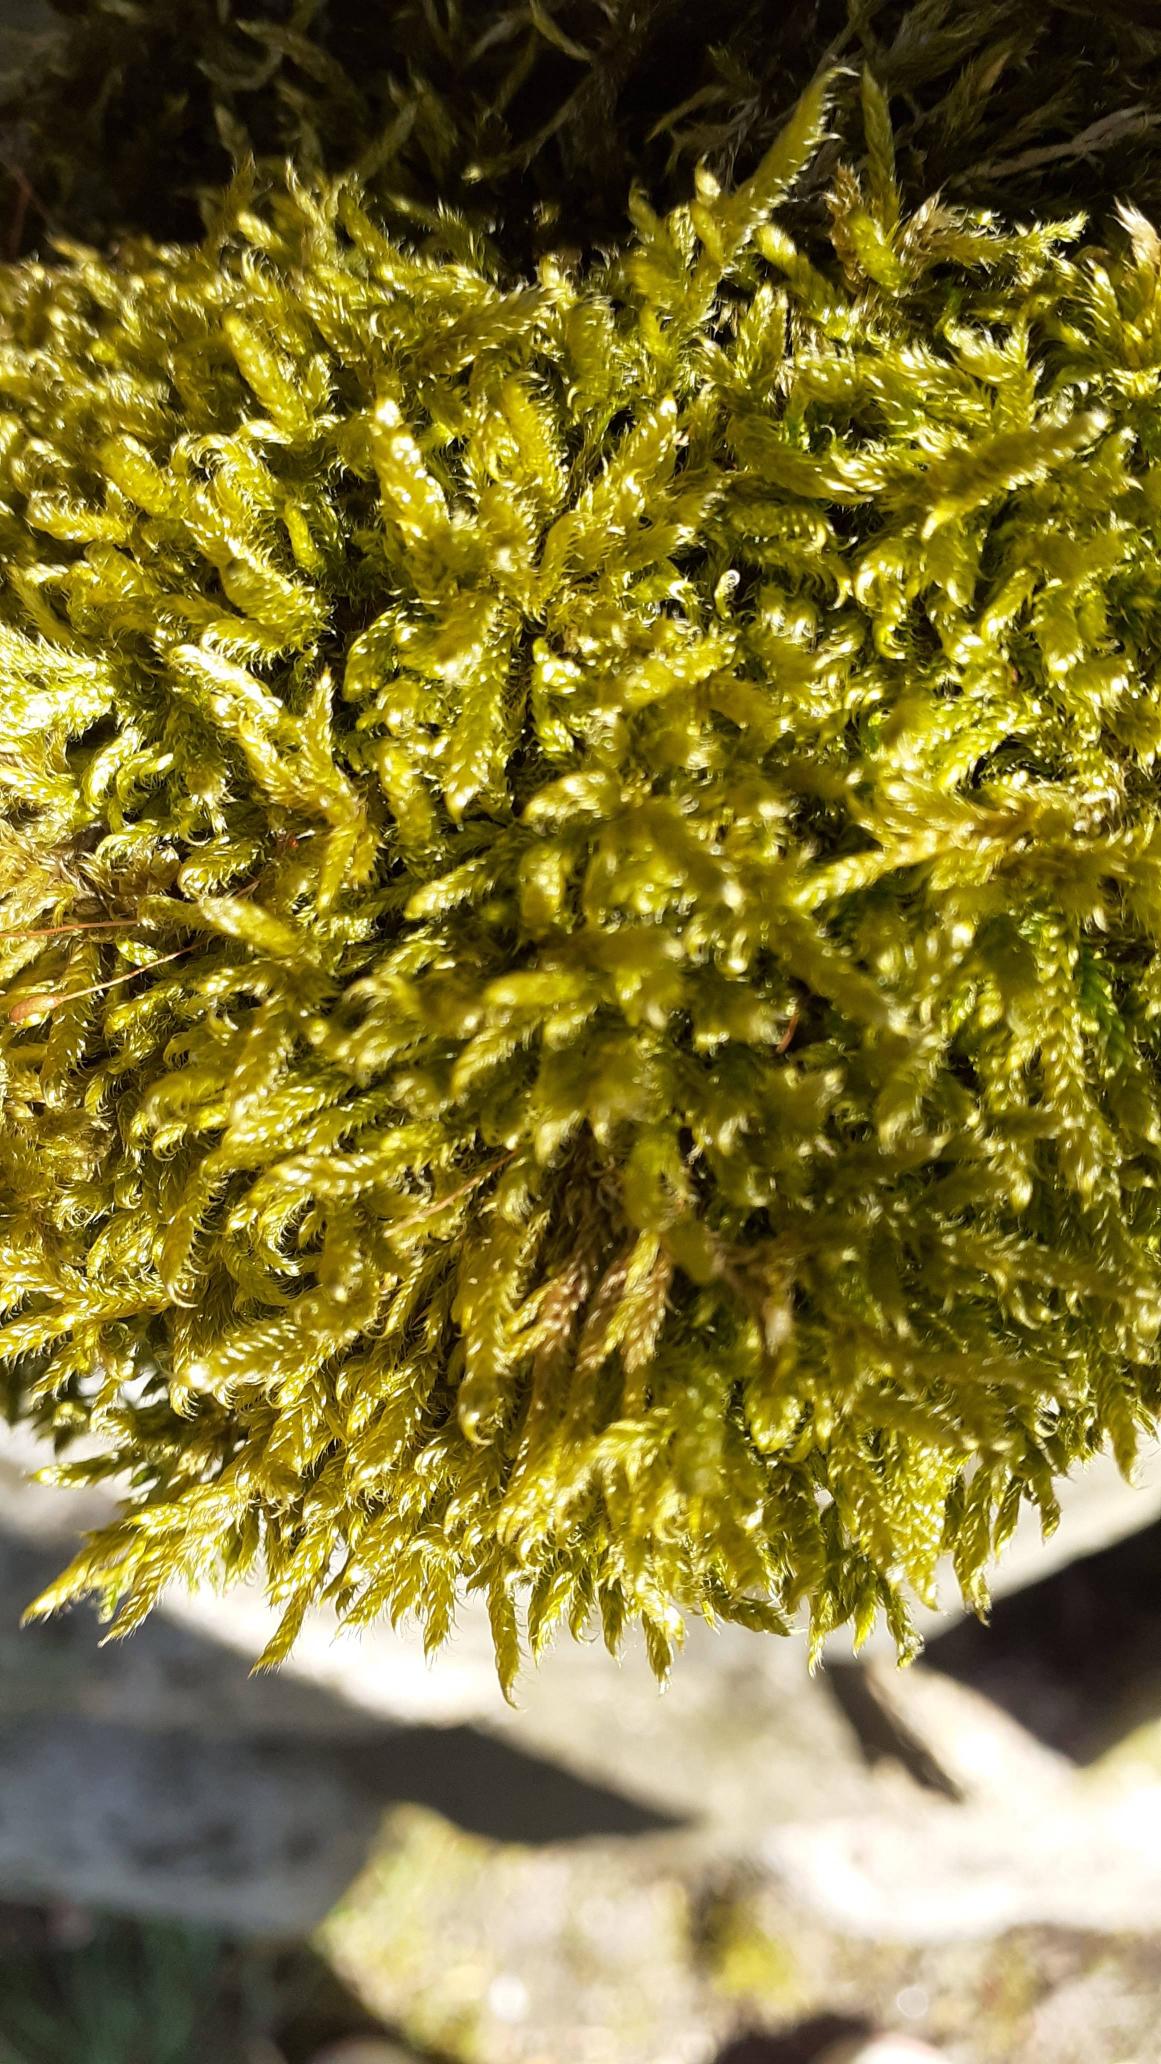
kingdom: Plantae
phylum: Bryophyta
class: Bryopsida
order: Hypnales
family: Hypnaceae
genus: Hypnum
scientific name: Hypnum cupressiforme
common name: Almindelig cypresmos
